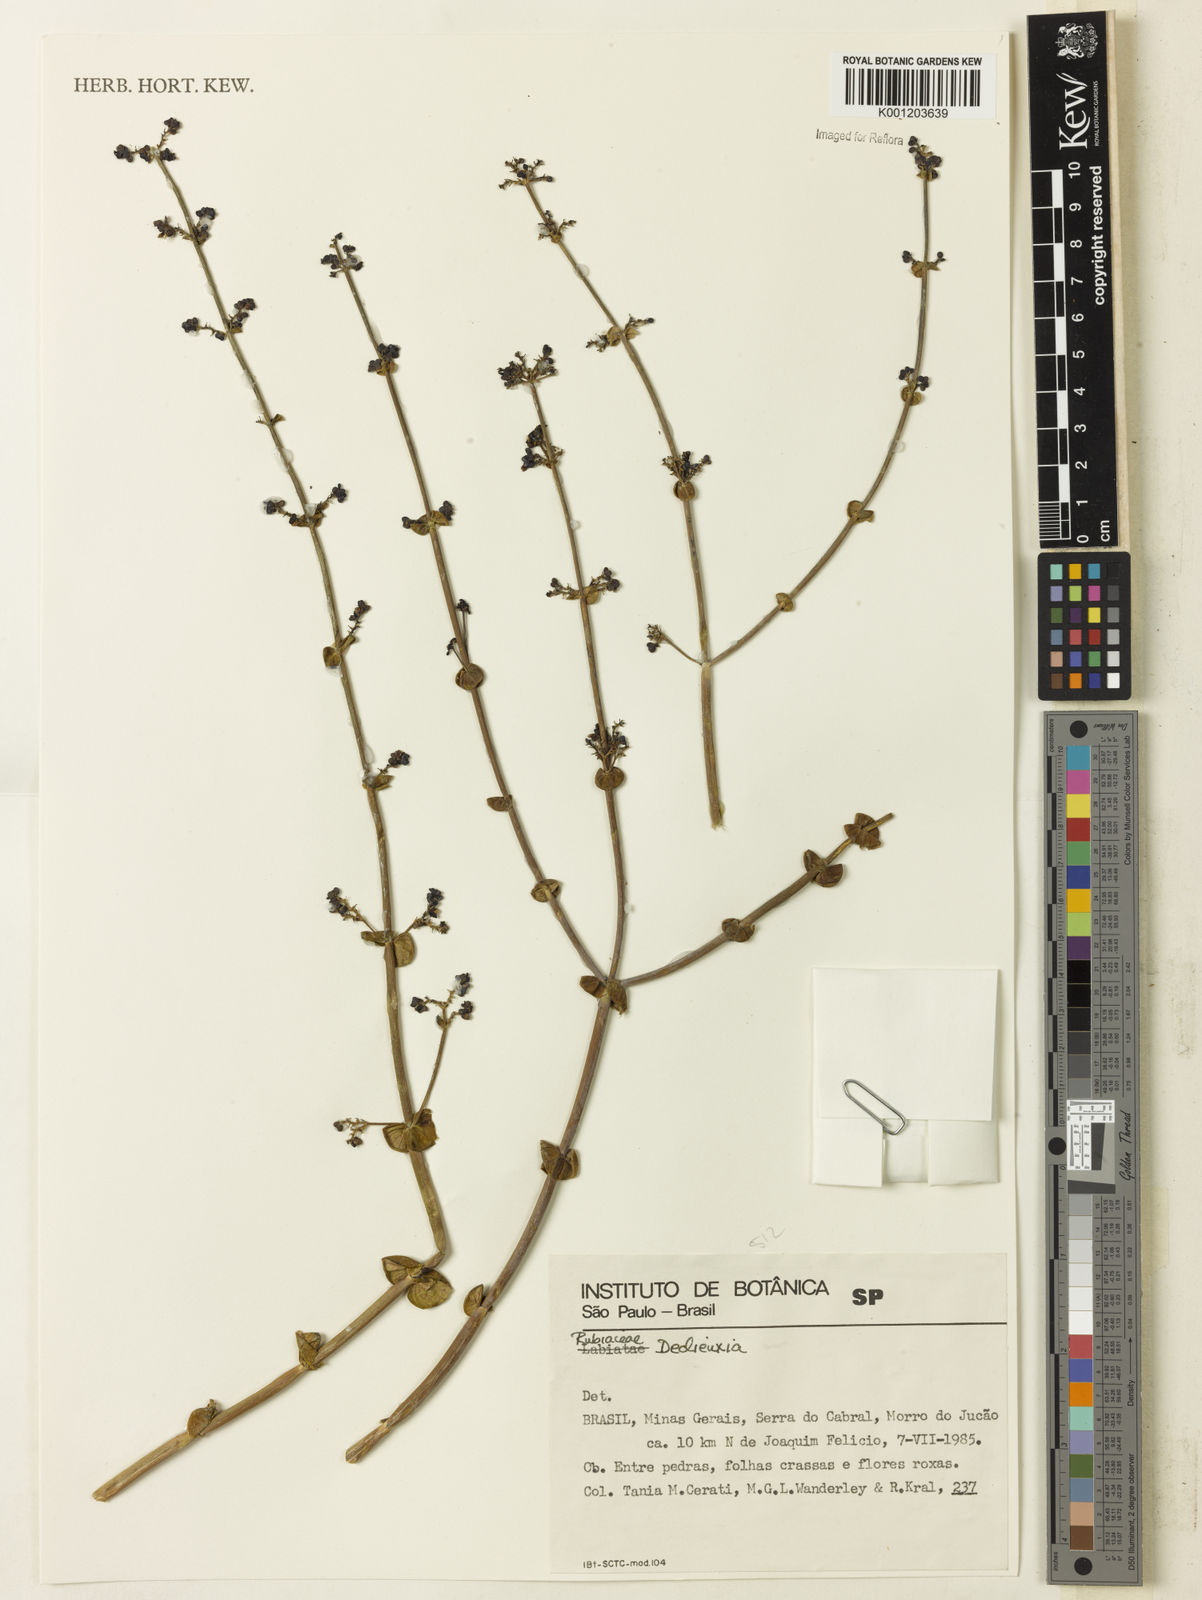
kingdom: Plantae
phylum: Tracheophyta
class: Magnoliopsida
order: Gentianales
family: Rubiaceae
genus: Declieuxia
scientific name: Declieuxia
